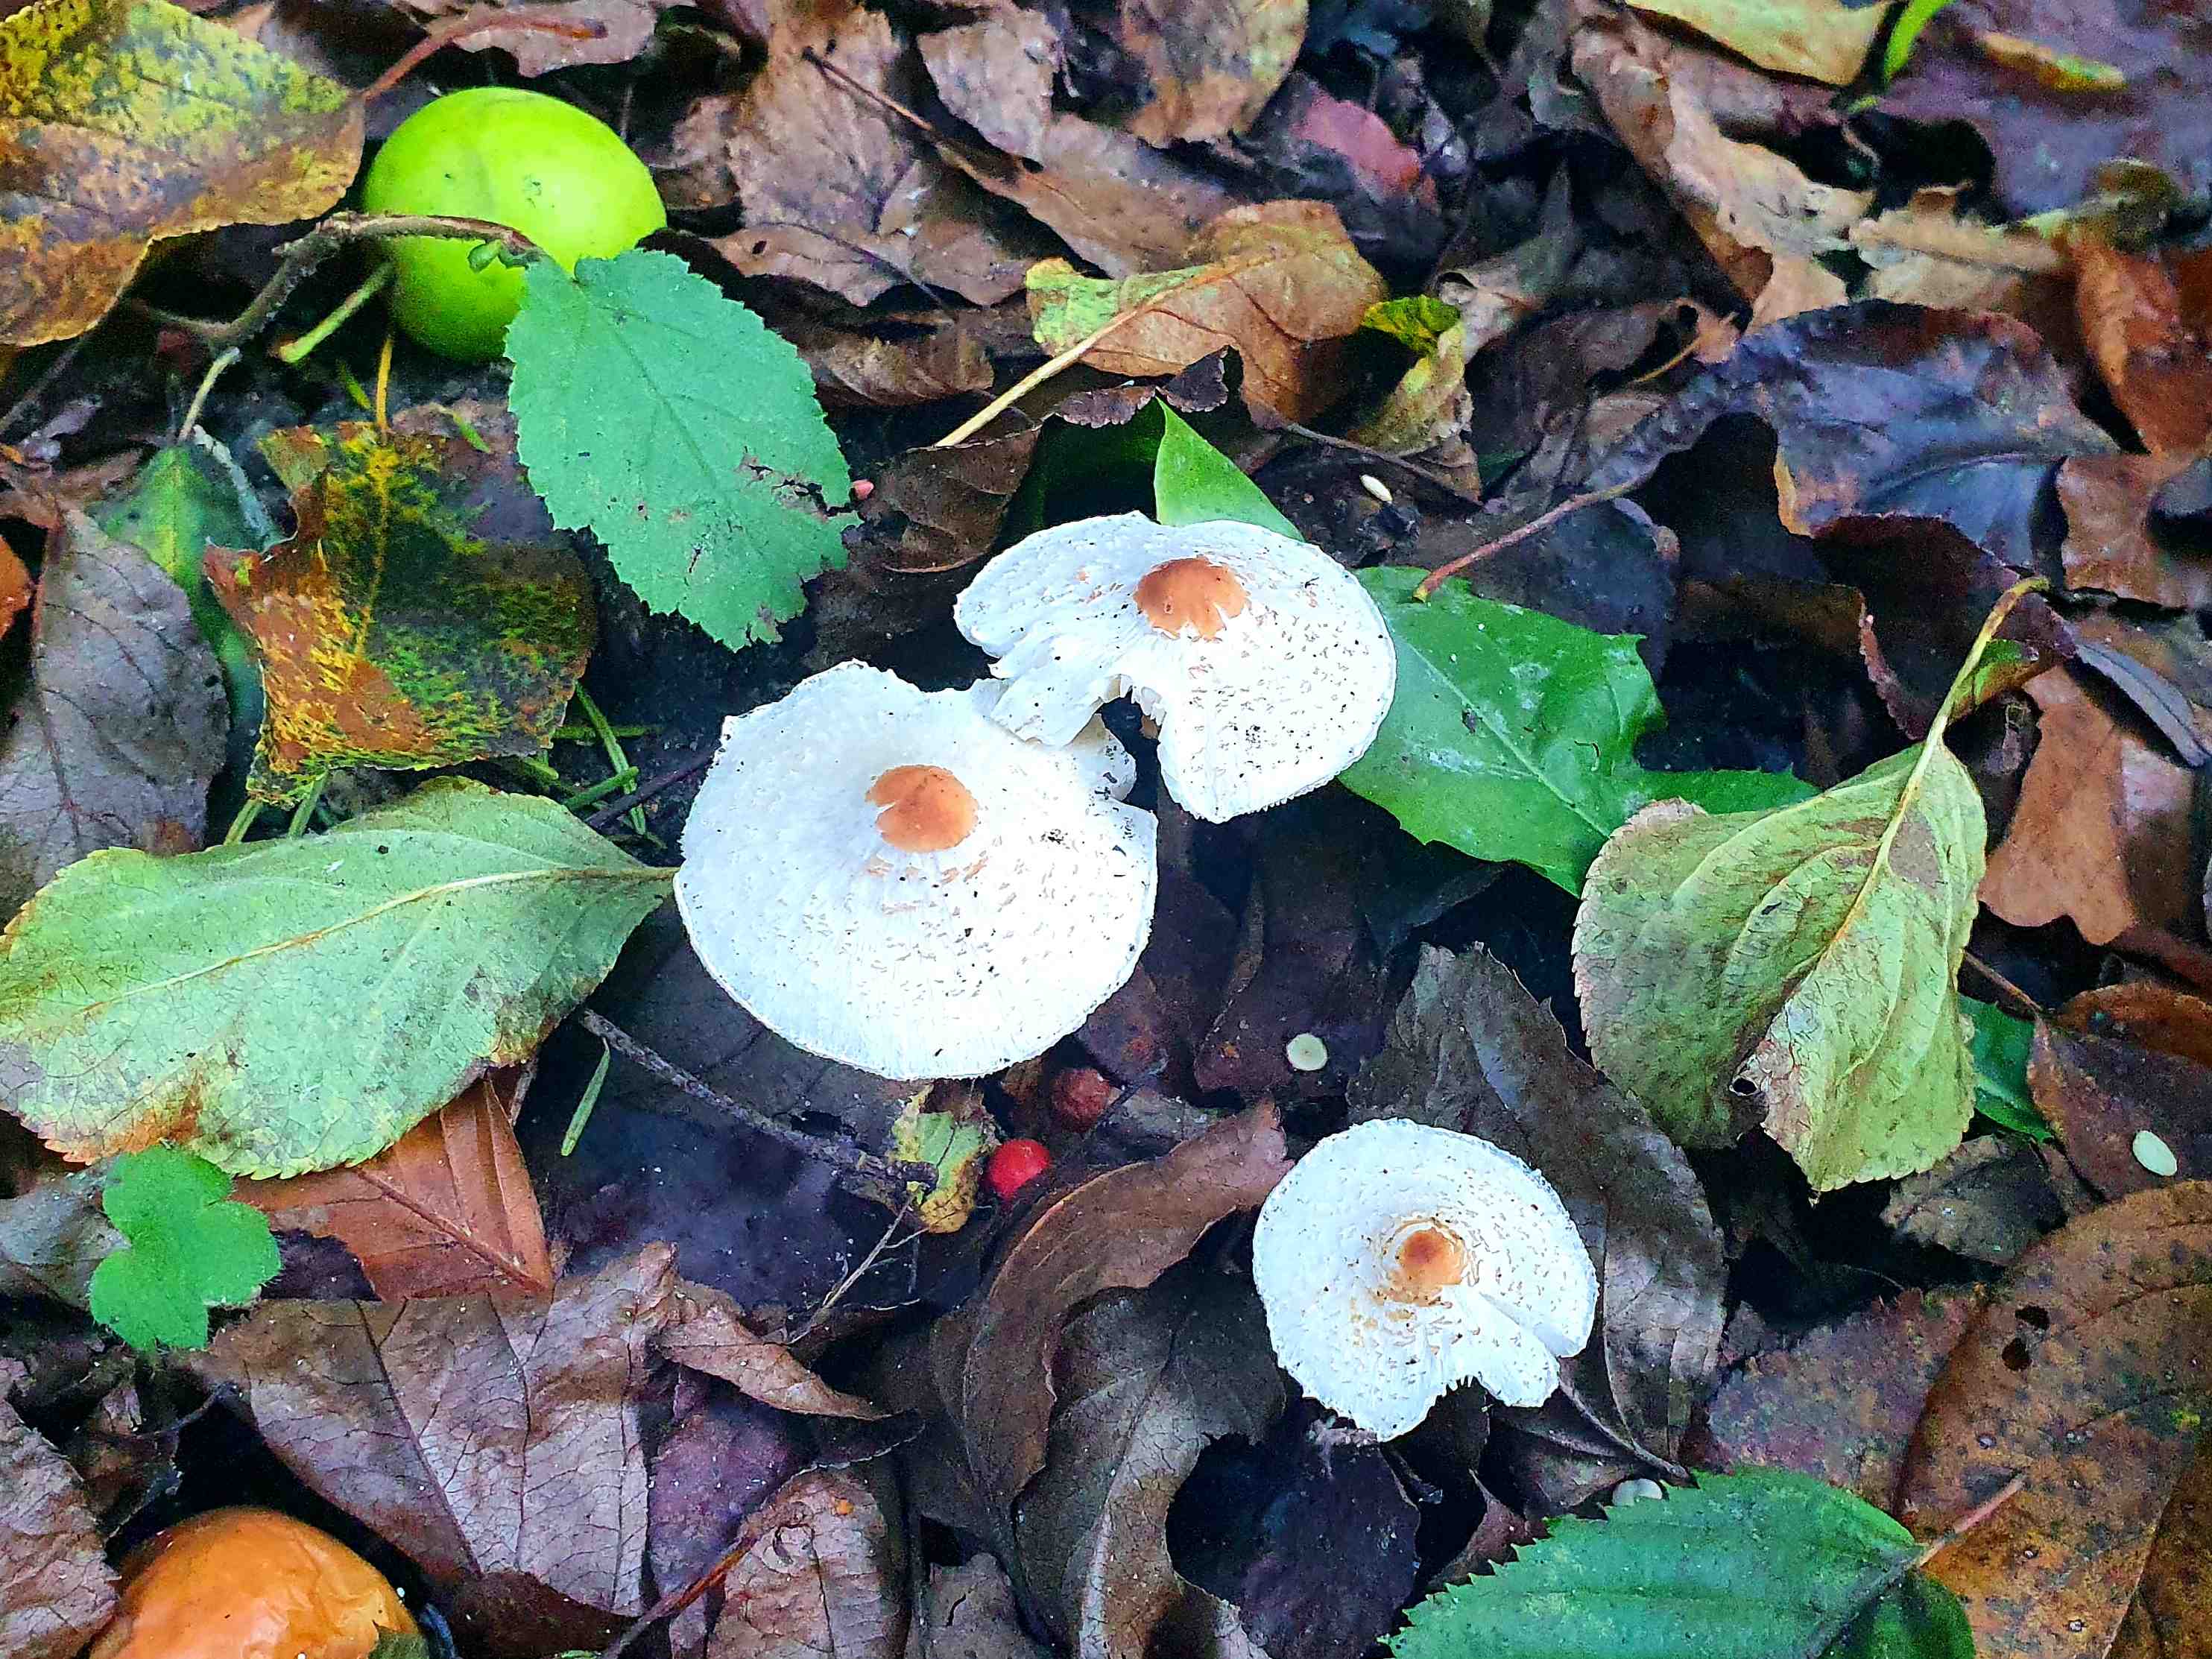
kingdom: Fungi
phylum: Basidiomycota
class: Agaricomycetes
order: Agaricales
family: Agaricaceae
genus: Lepiota
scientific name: Lepiota cristata
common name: stinkende parasolhat
